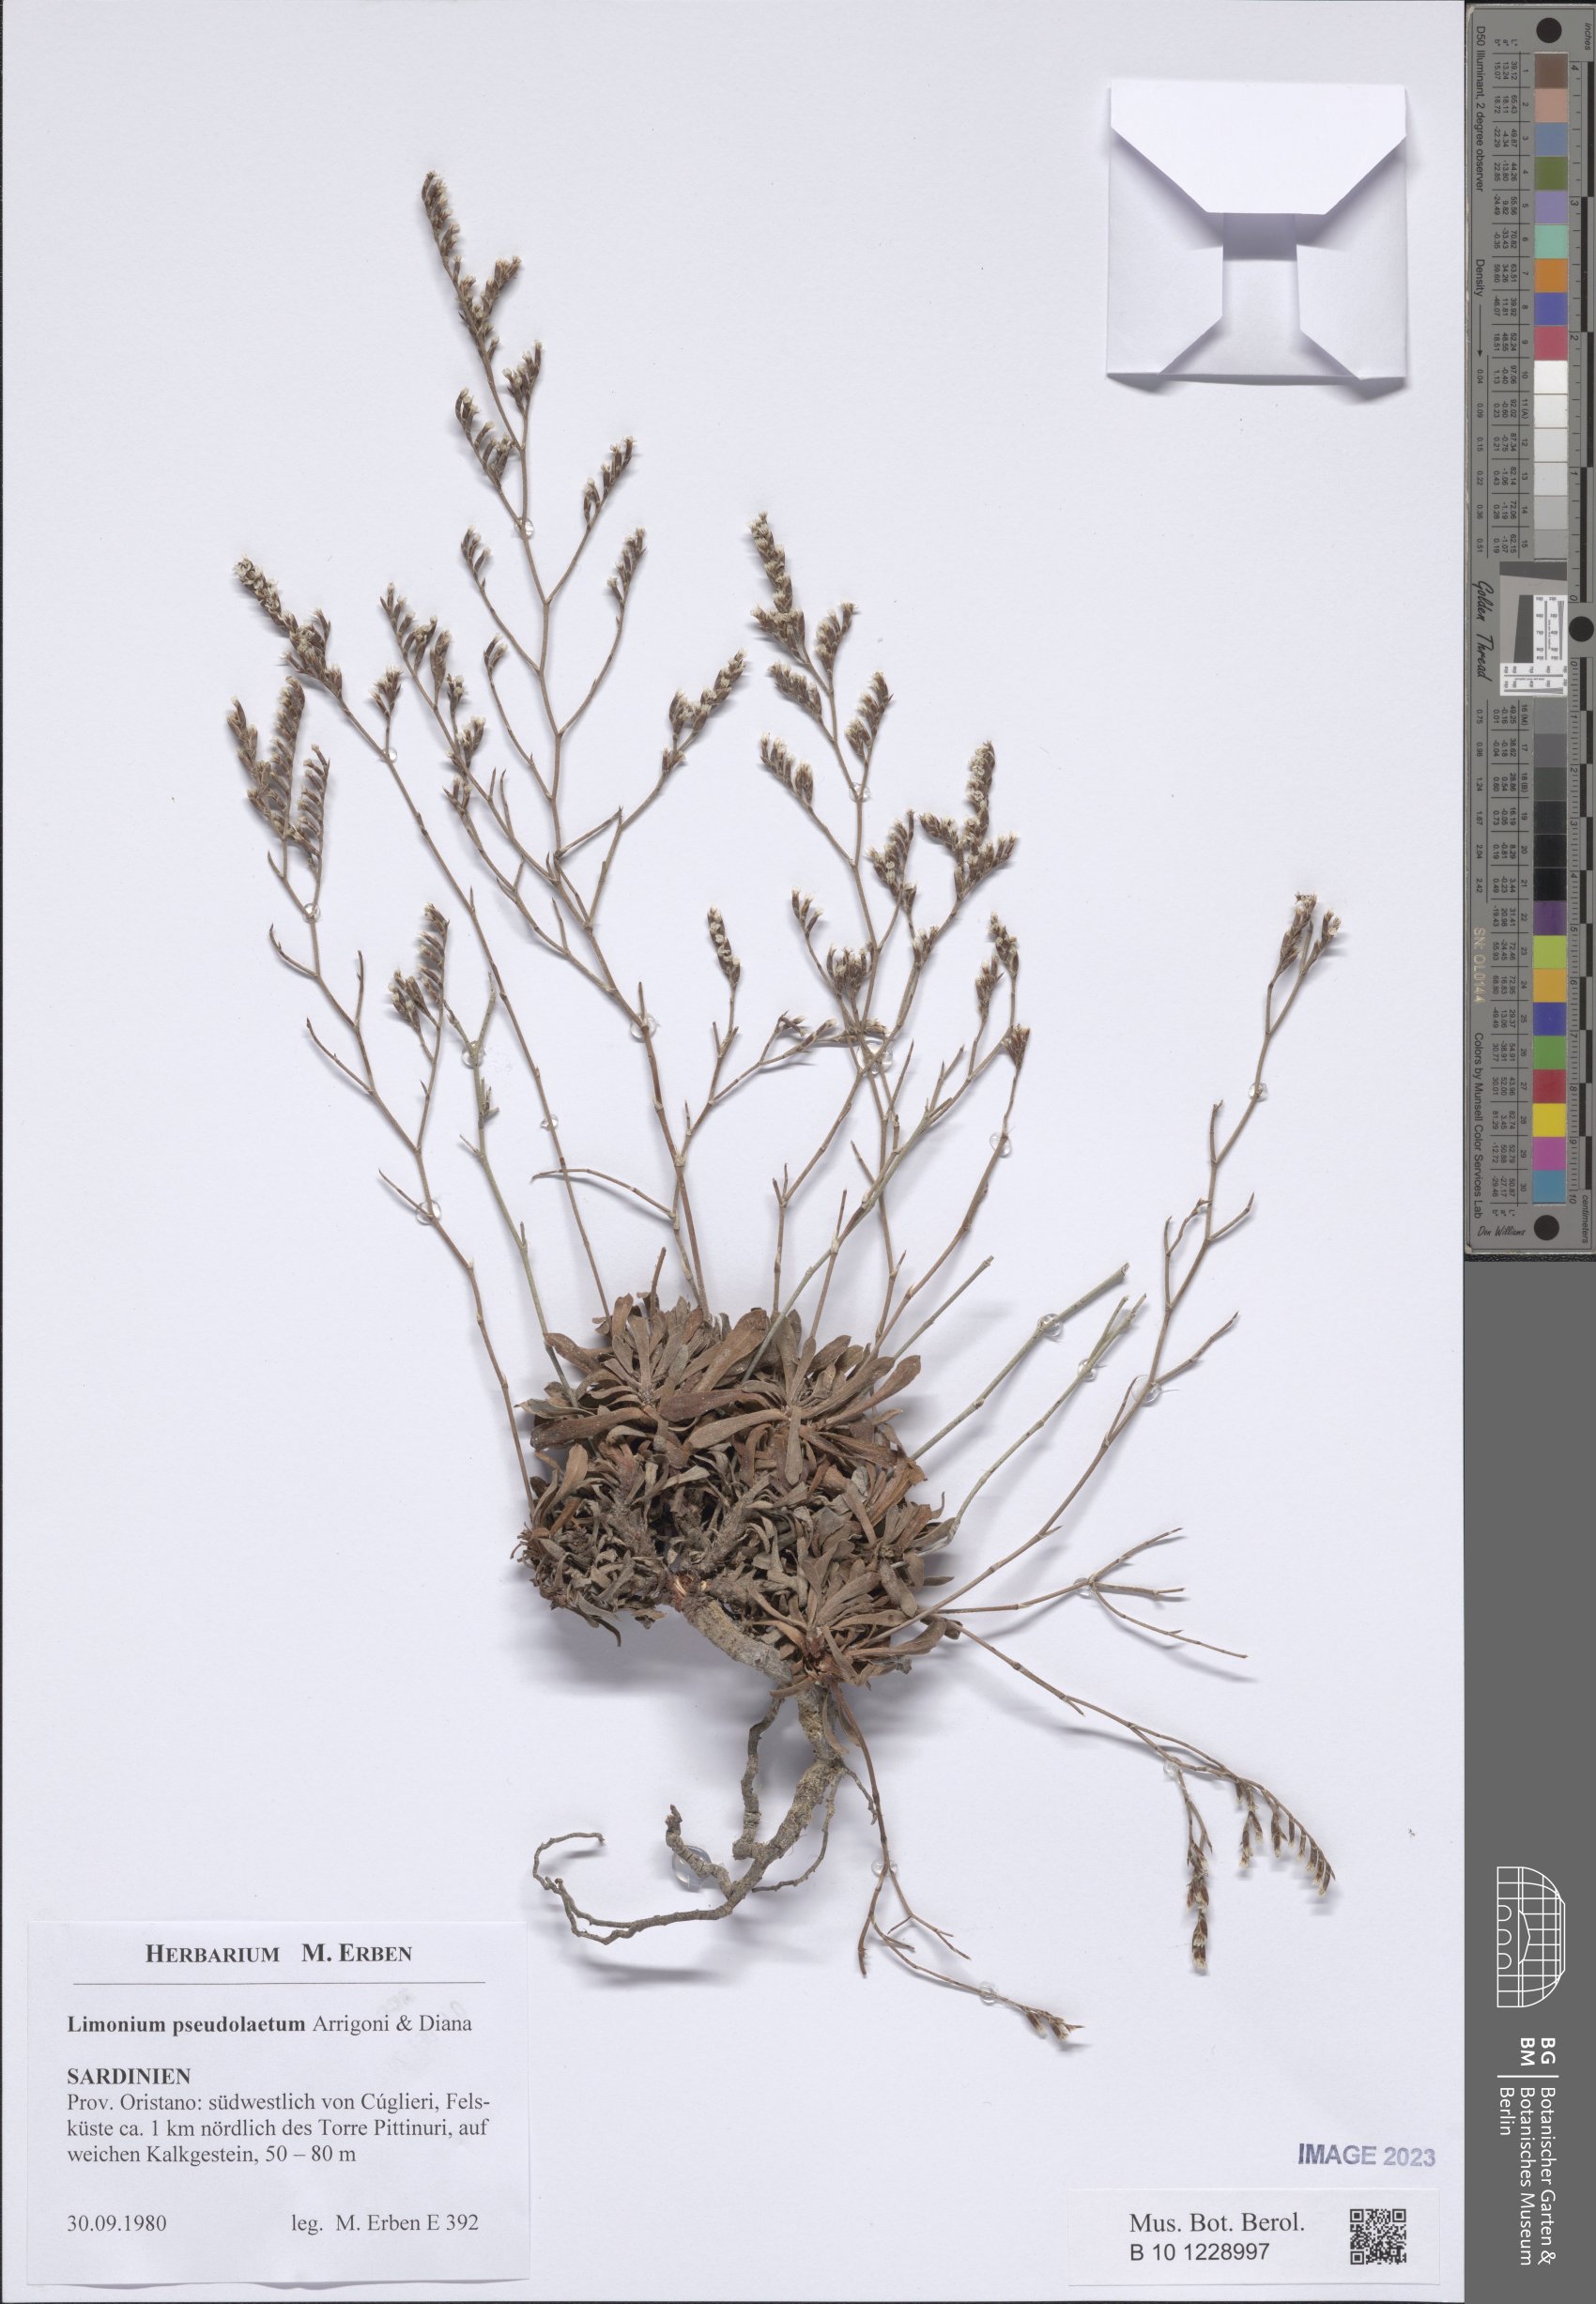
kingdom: Plantae
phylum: Tracheophyta
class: Magnoliopsida
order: Caryophyllales
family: Plumbaginaceae
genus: Limonium
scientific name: Limonium pseudolaetum
